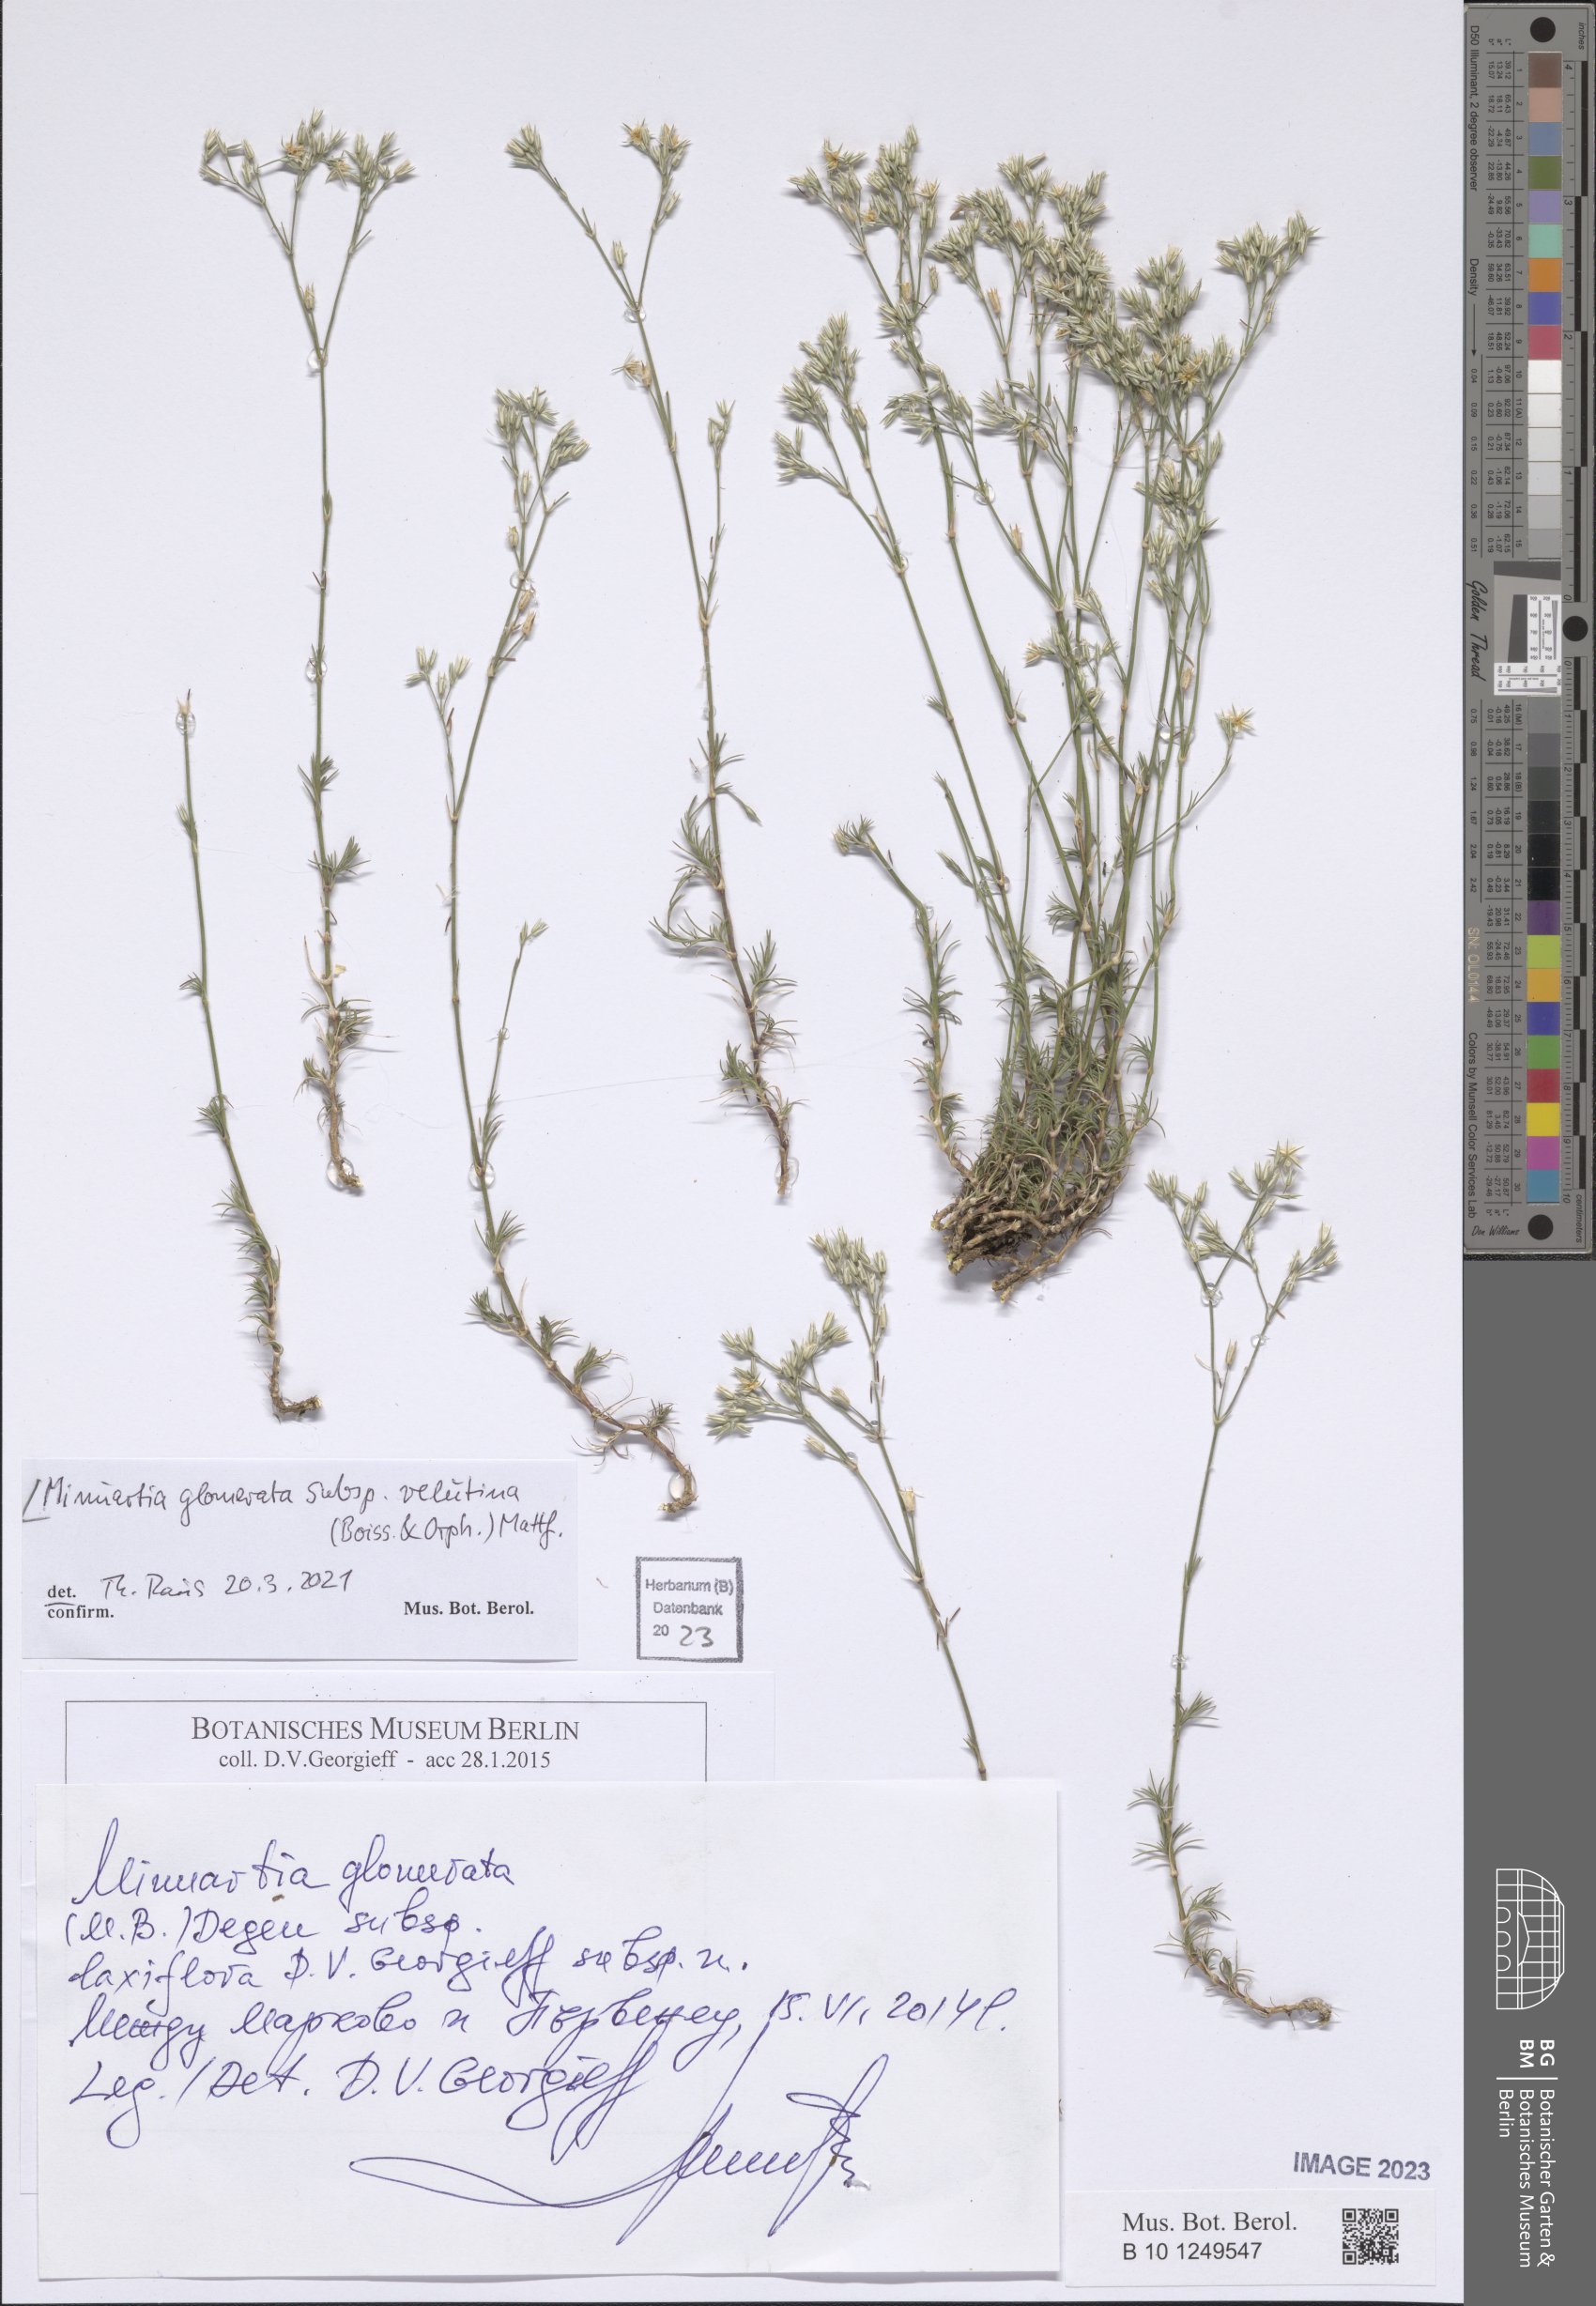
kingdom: Plantae
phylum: Tracheophyta
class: Magnoliopsida
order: Caryophyllales
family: Caryophyllaceae
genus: Minuartia
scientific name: Minuartia glomerata
